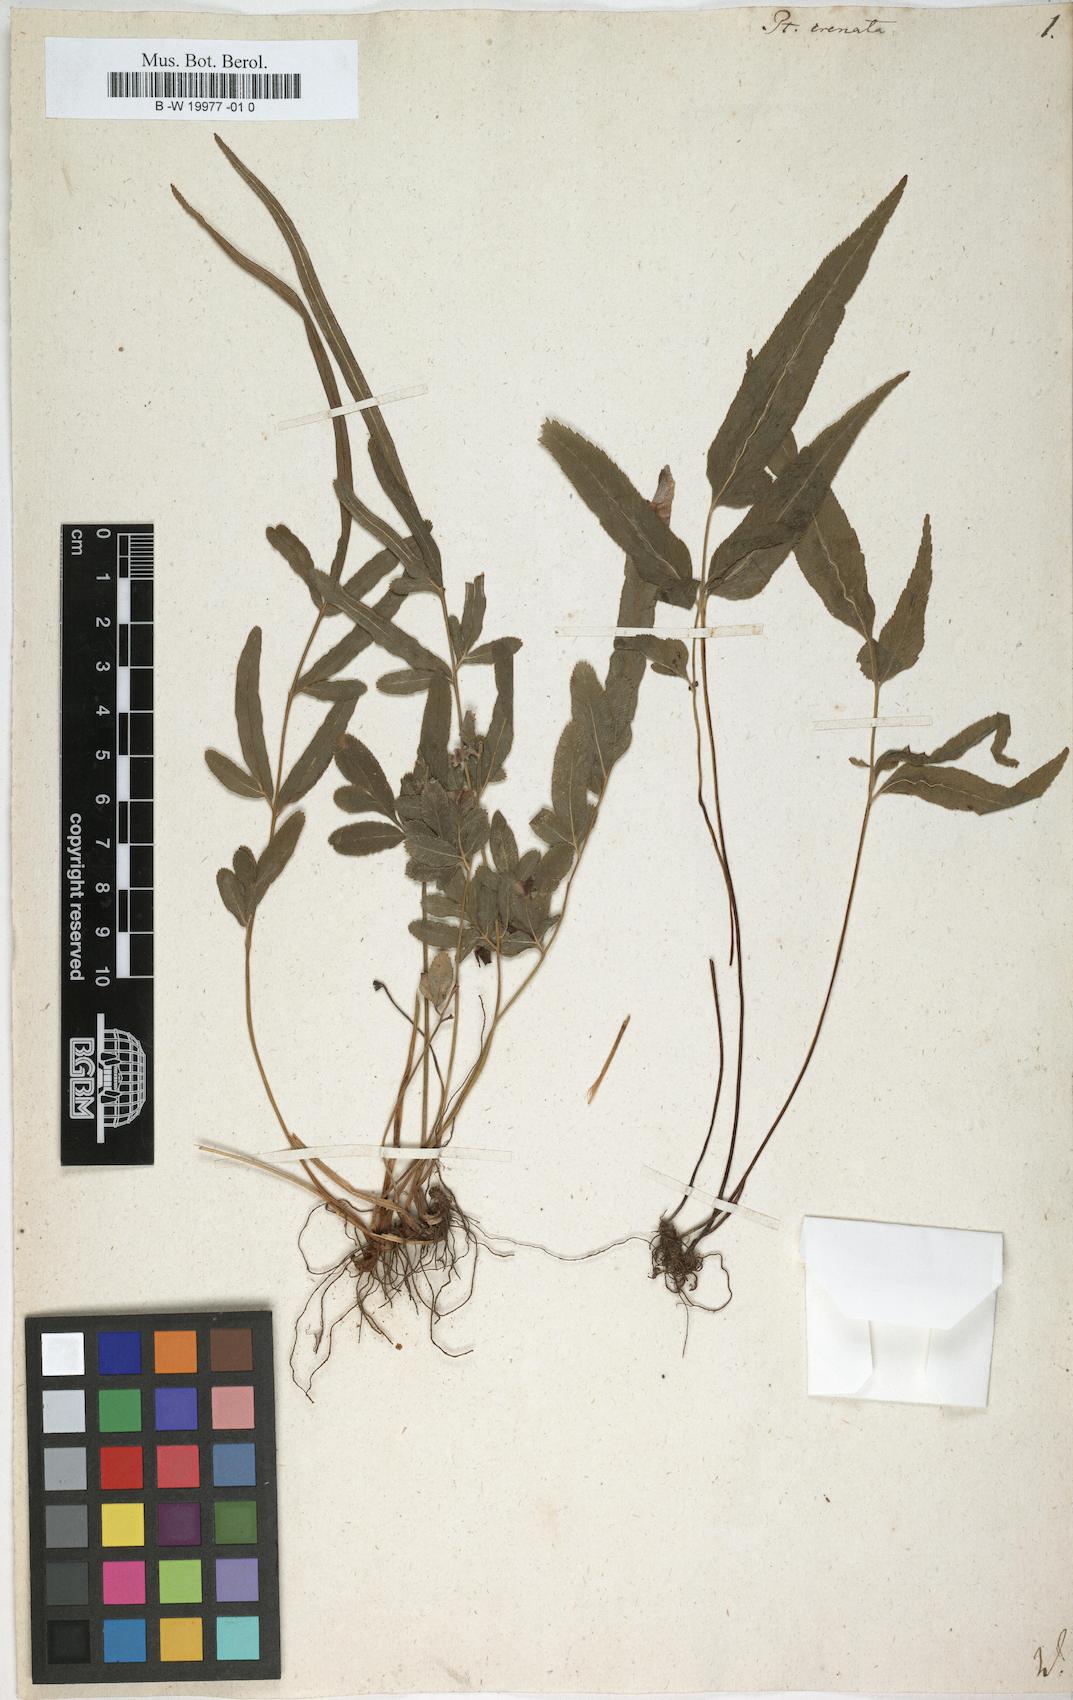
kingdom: Plantae
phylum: Tracheophyta
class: Polypodiopsida
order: Polypodiales
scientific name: Polypodiales
